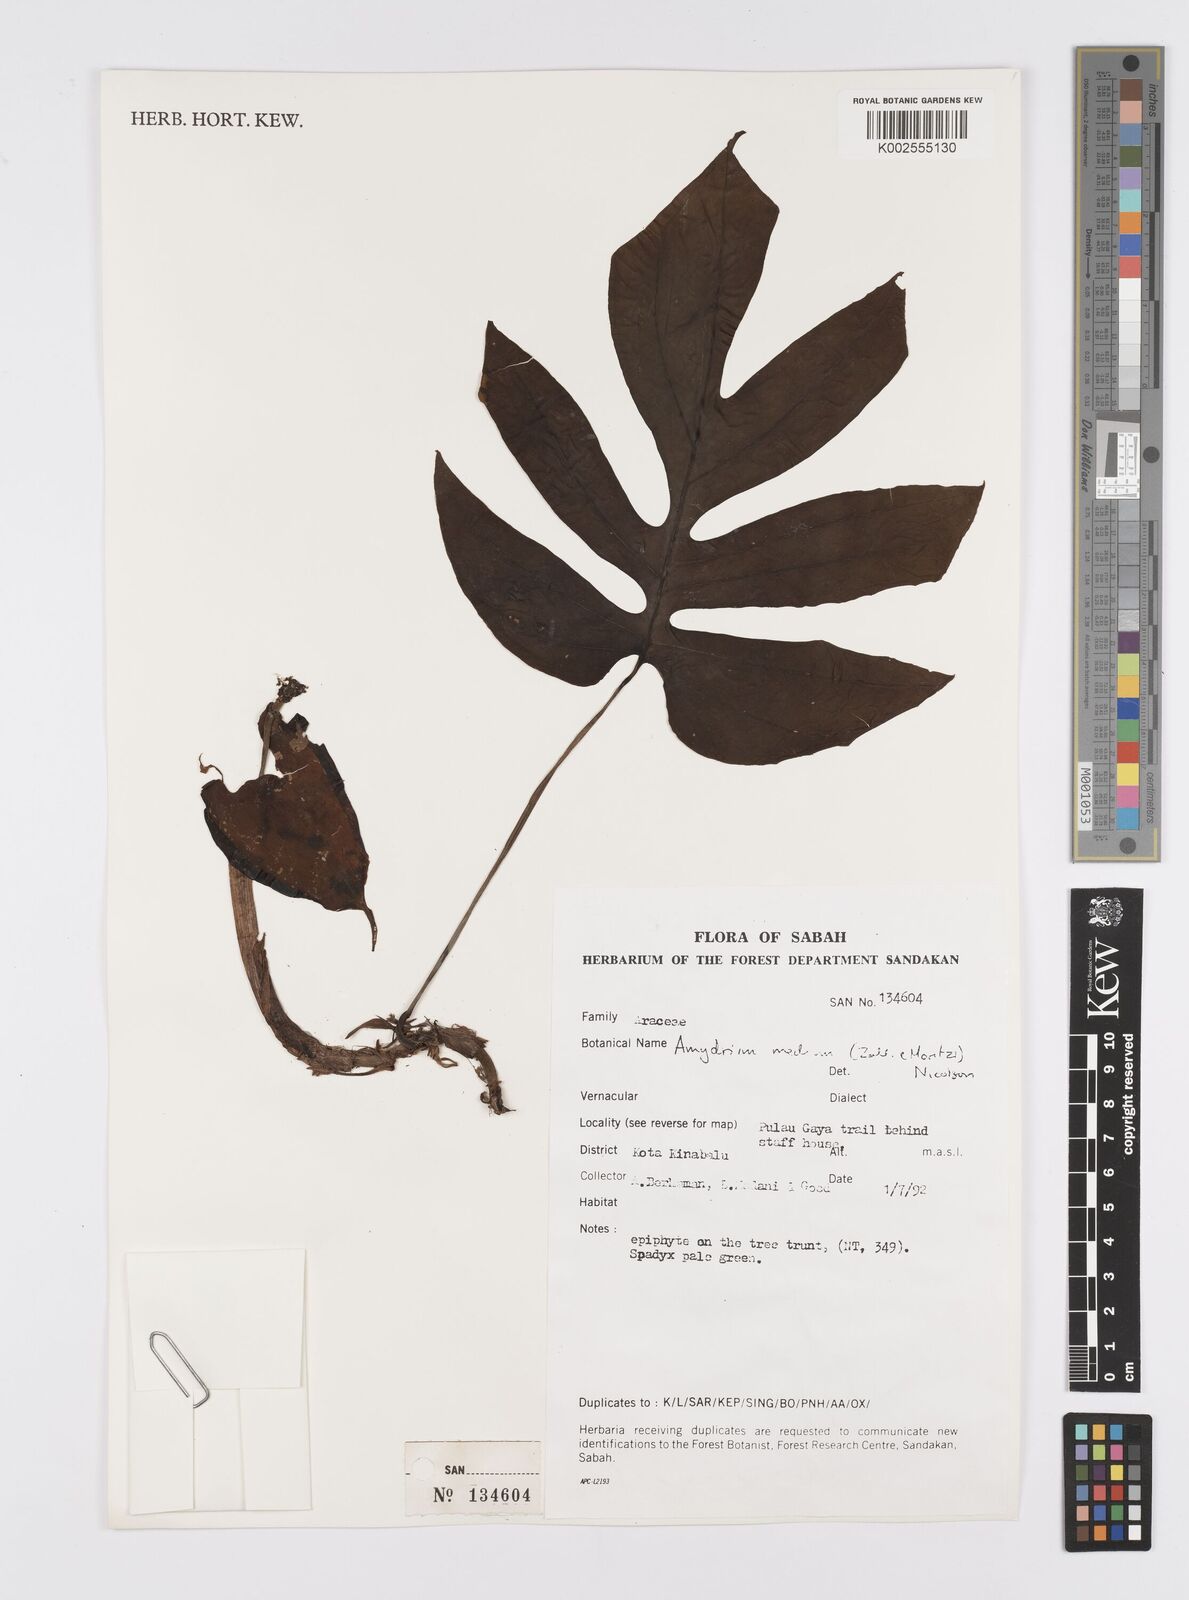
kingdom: Plantae
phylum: Tracheophyta
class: Liliopsida
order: Alismatales
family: Araceae
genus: Amydrium
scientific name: Amydrium medium
